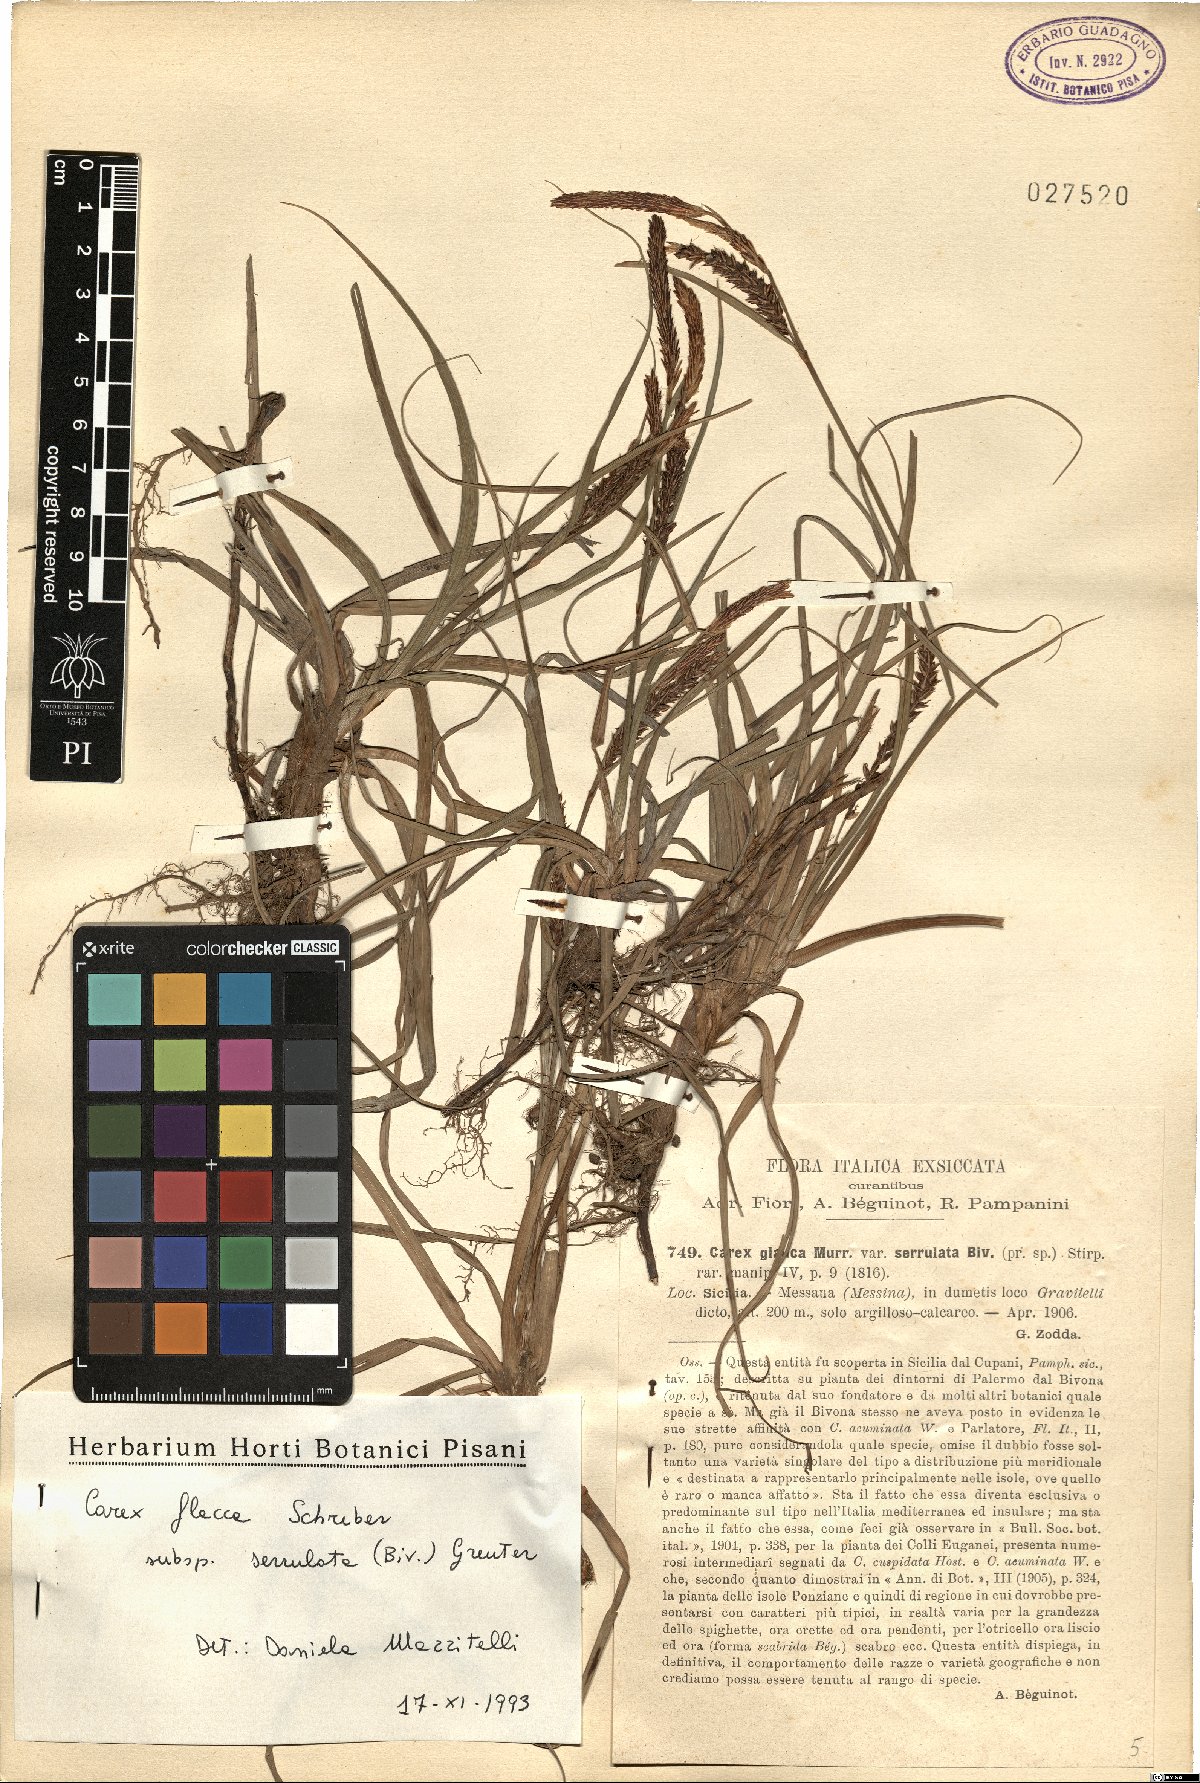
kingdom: Plantae
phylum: Tracheophyta
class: Liliopsida
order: Poales
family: Cyperaceae
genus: Carex
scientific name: Carex flacca
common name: Glaucous sedge
